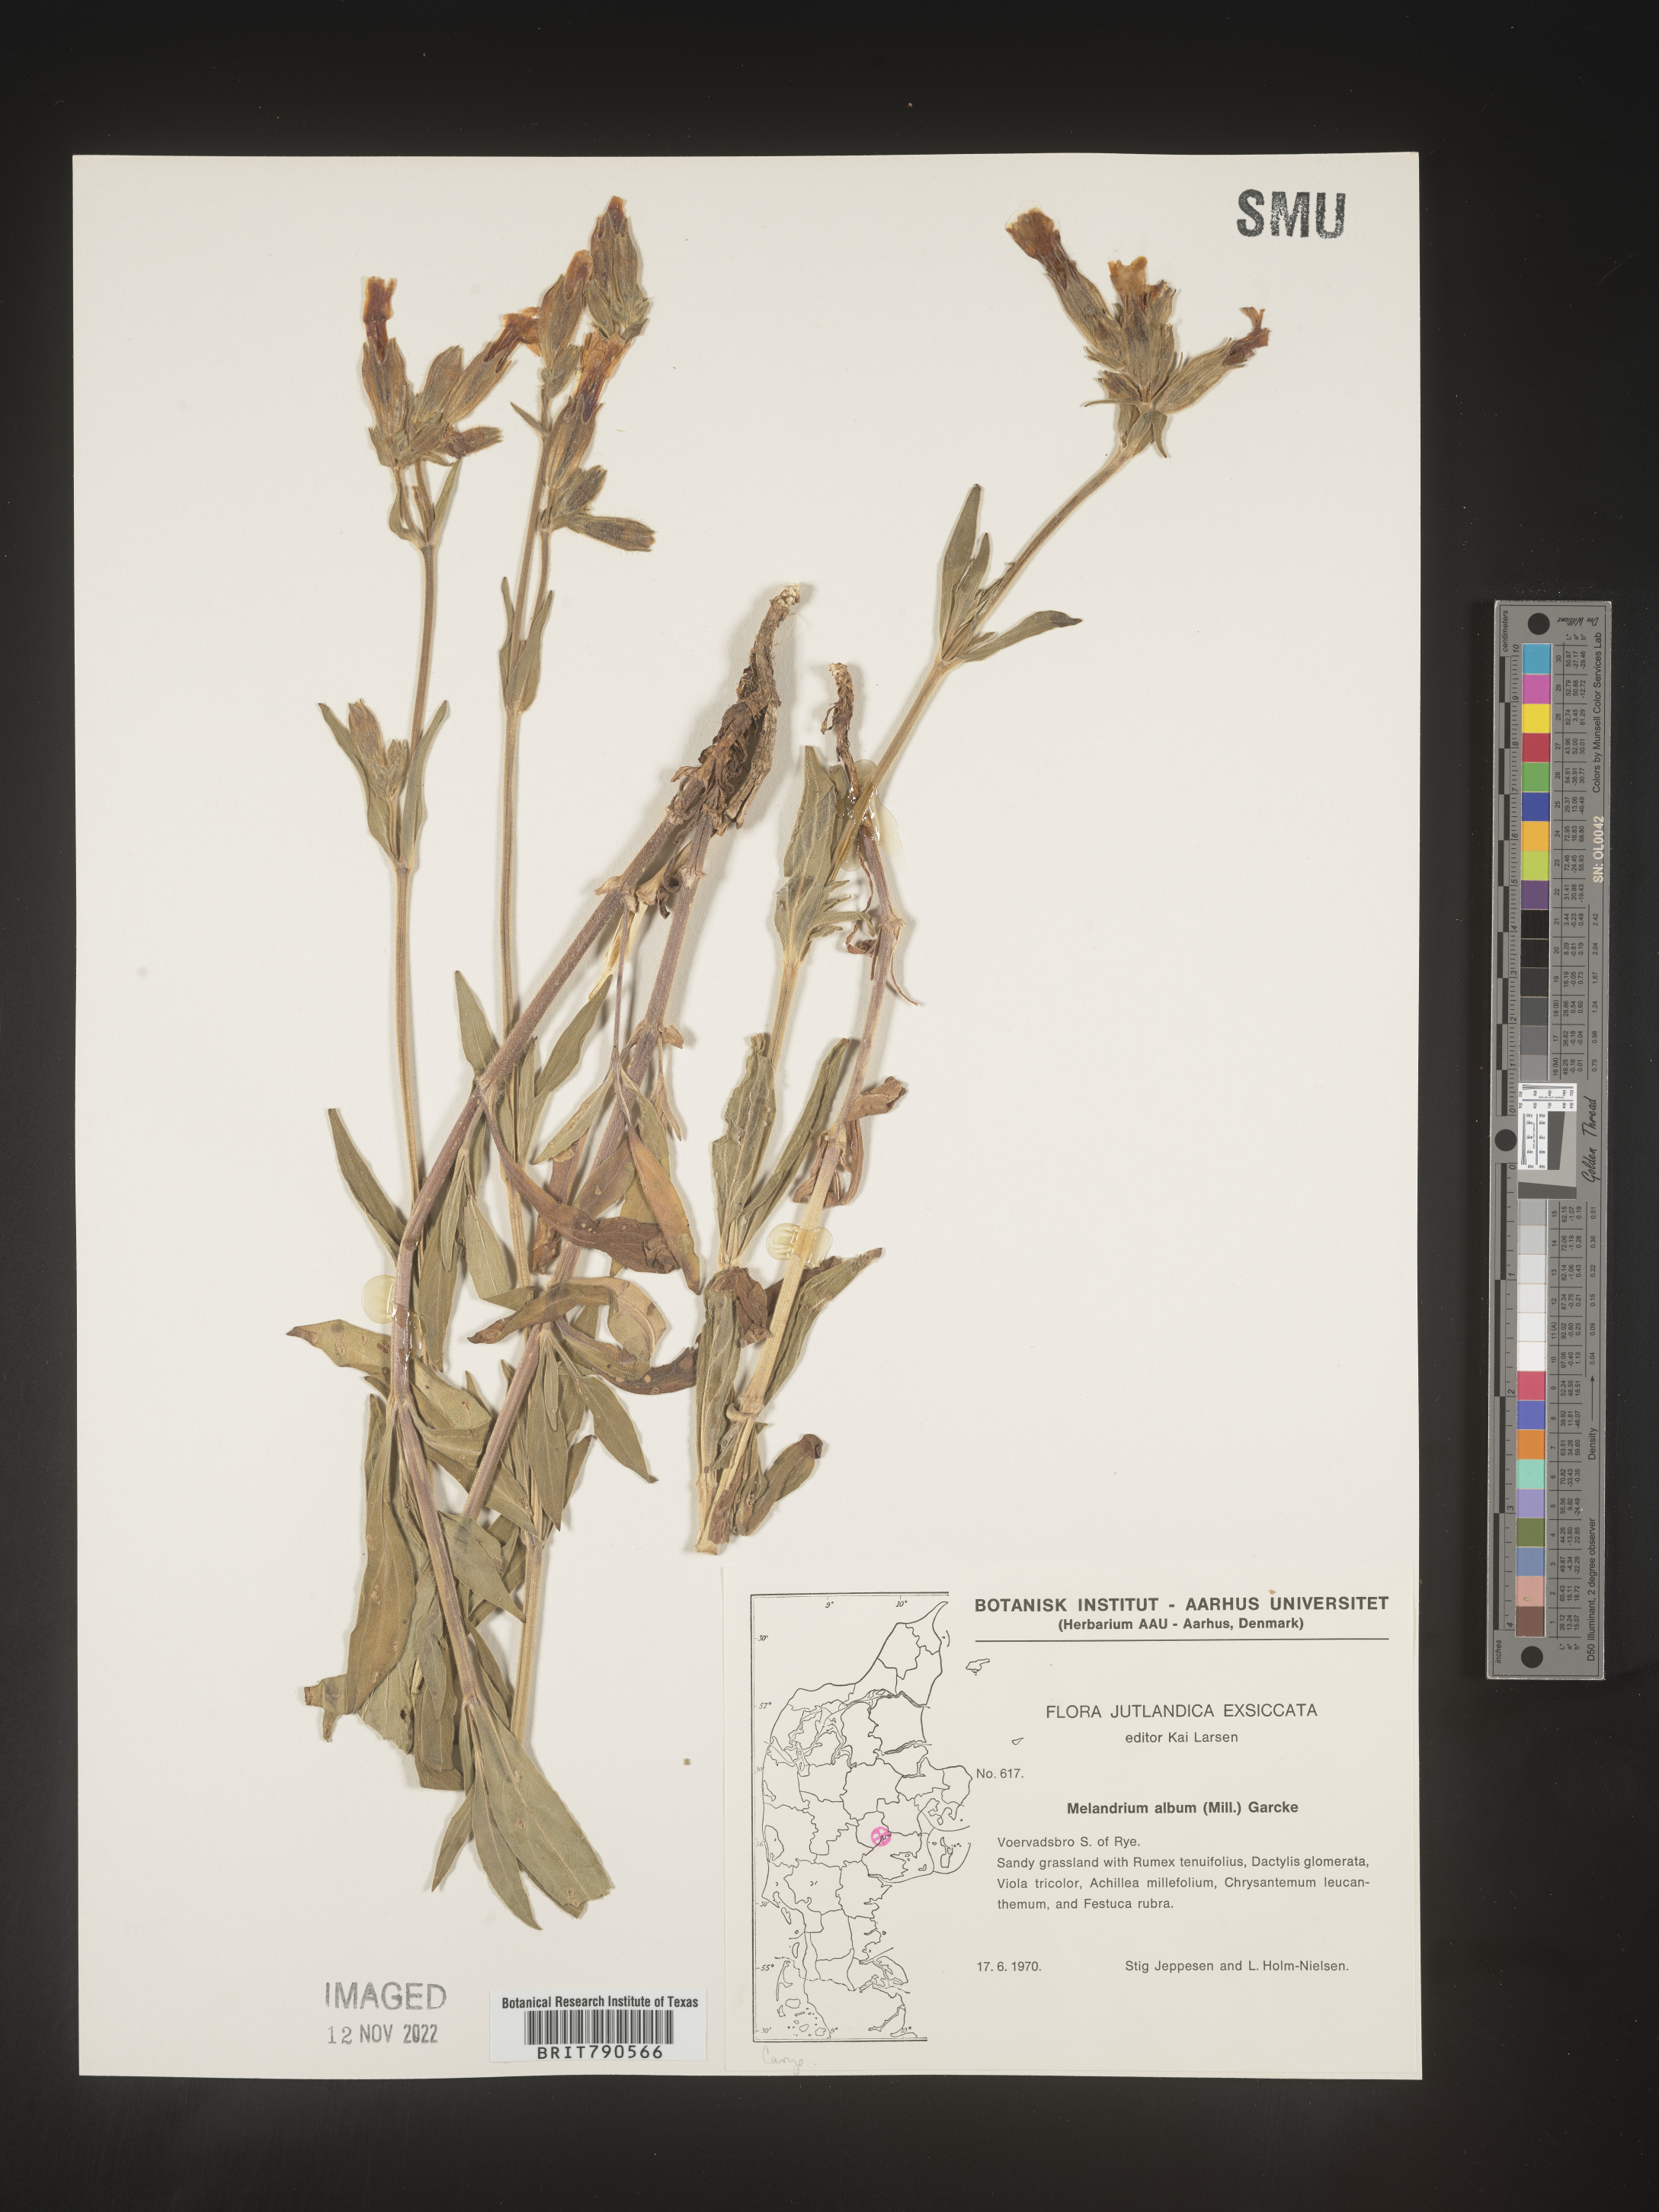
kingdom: Plantae
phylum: Tracheophyta
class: Magnoliopsida
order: Caryophyllales
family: Caryophyllaceae
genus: Silene
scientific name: Silene
